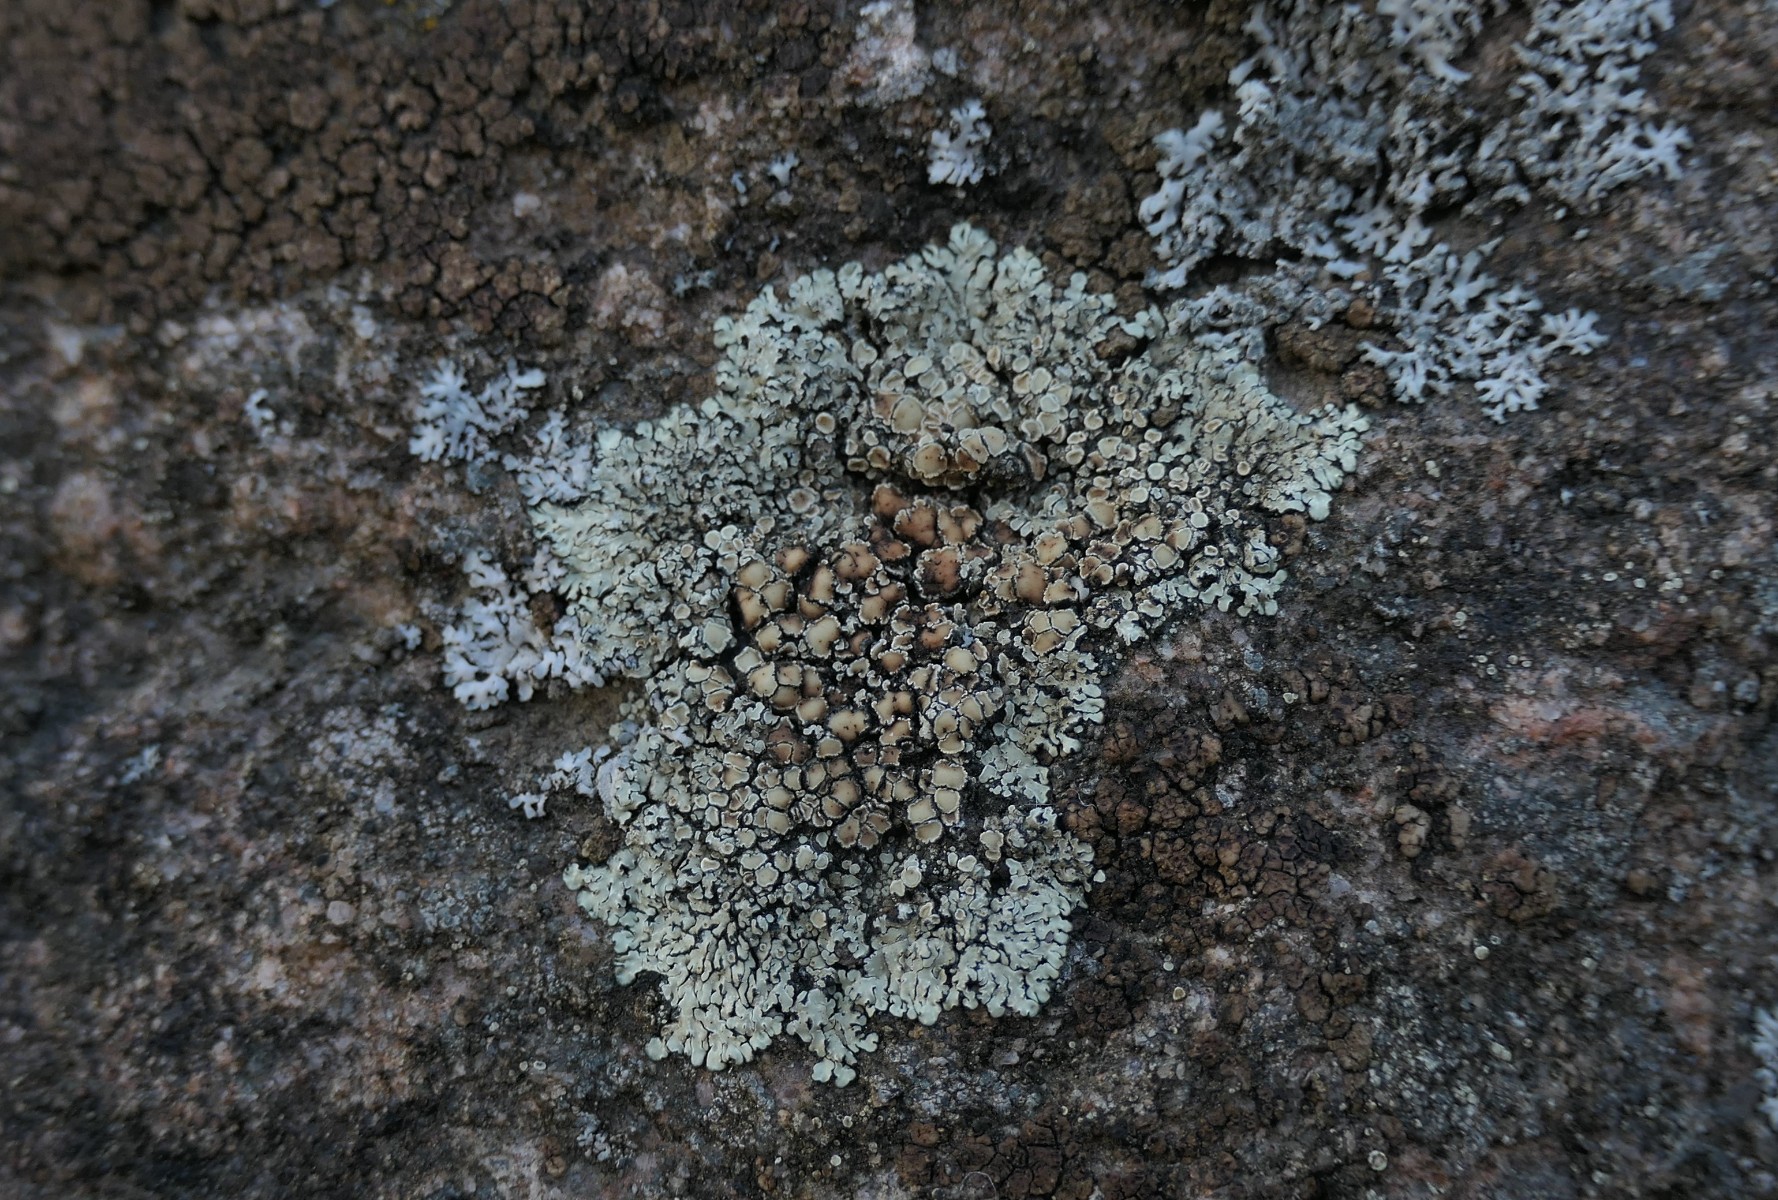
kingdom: Fungi
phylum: Ascomycota
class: Lecanoromycetes
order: Lecanorales
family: Lecanoraceae
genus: Protoparmeliopsis
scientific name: Protoparmeliopsis muralis
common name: randfliget kantskivelav
